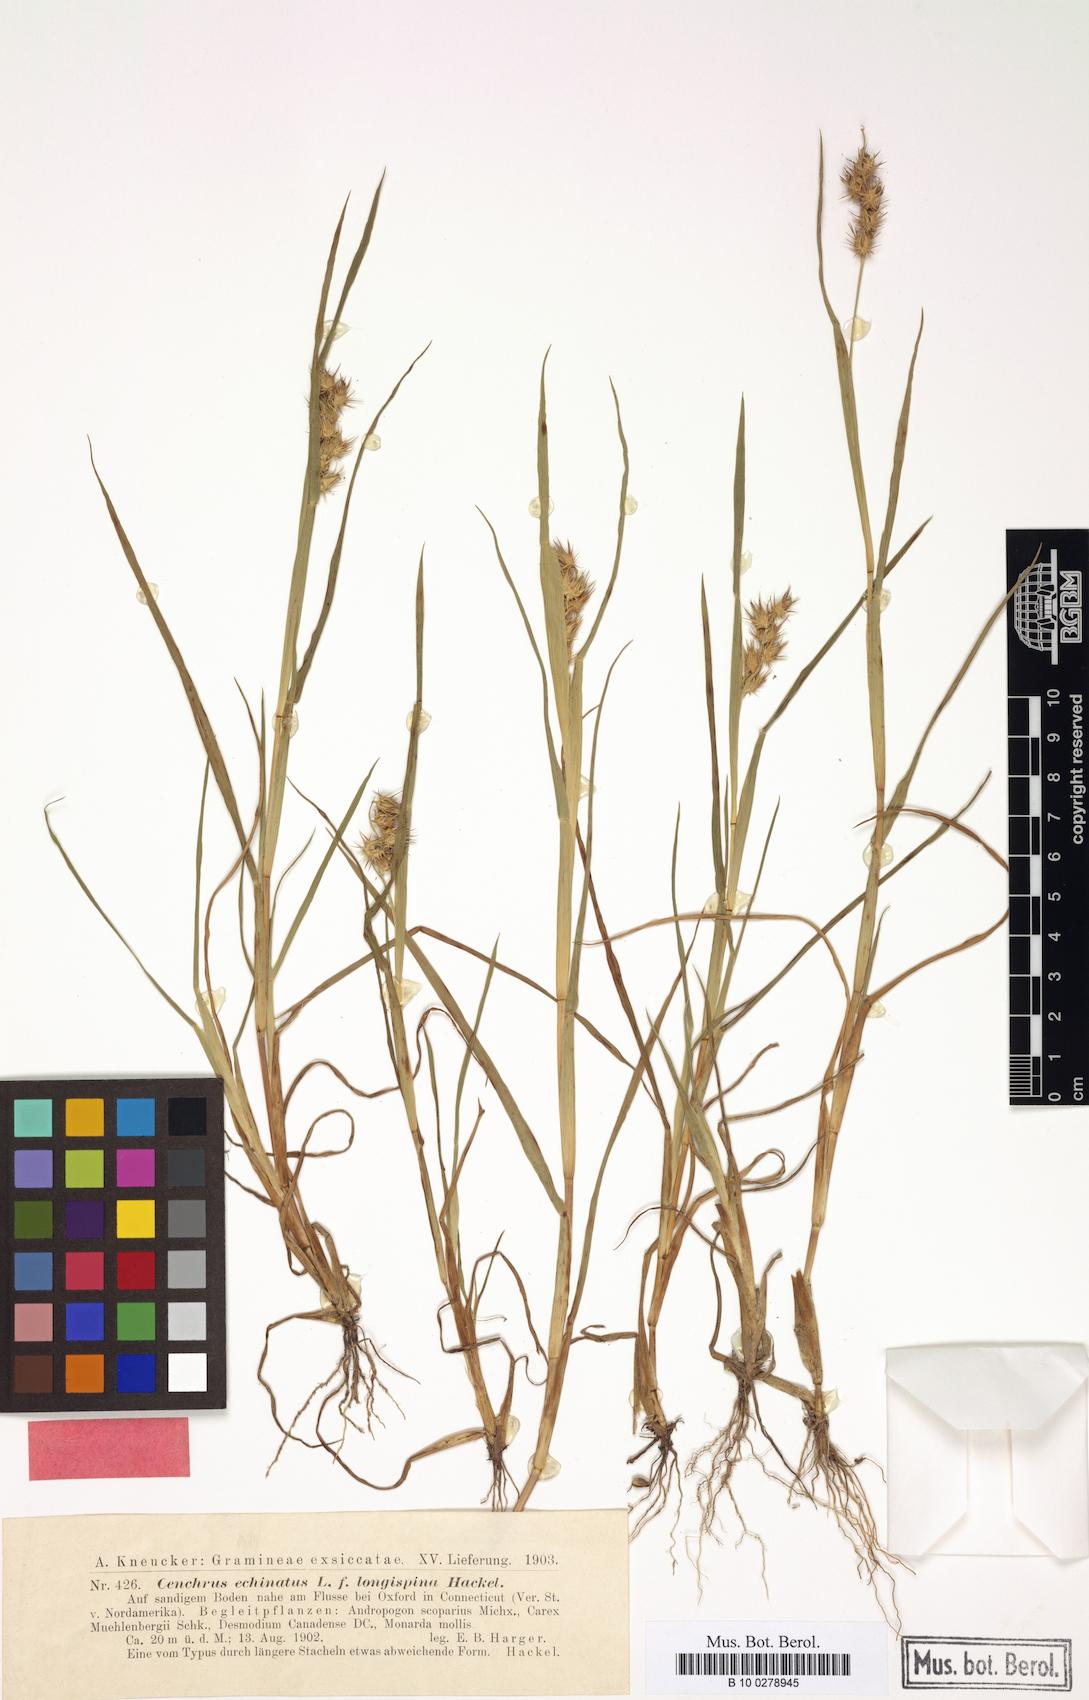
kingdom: Plantae
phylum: Tracheophyta
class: Liliopsida
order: Poales
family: Poaceae
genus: Cenchrus
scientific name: Cenchrus longispinus
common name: Mat sandbur
